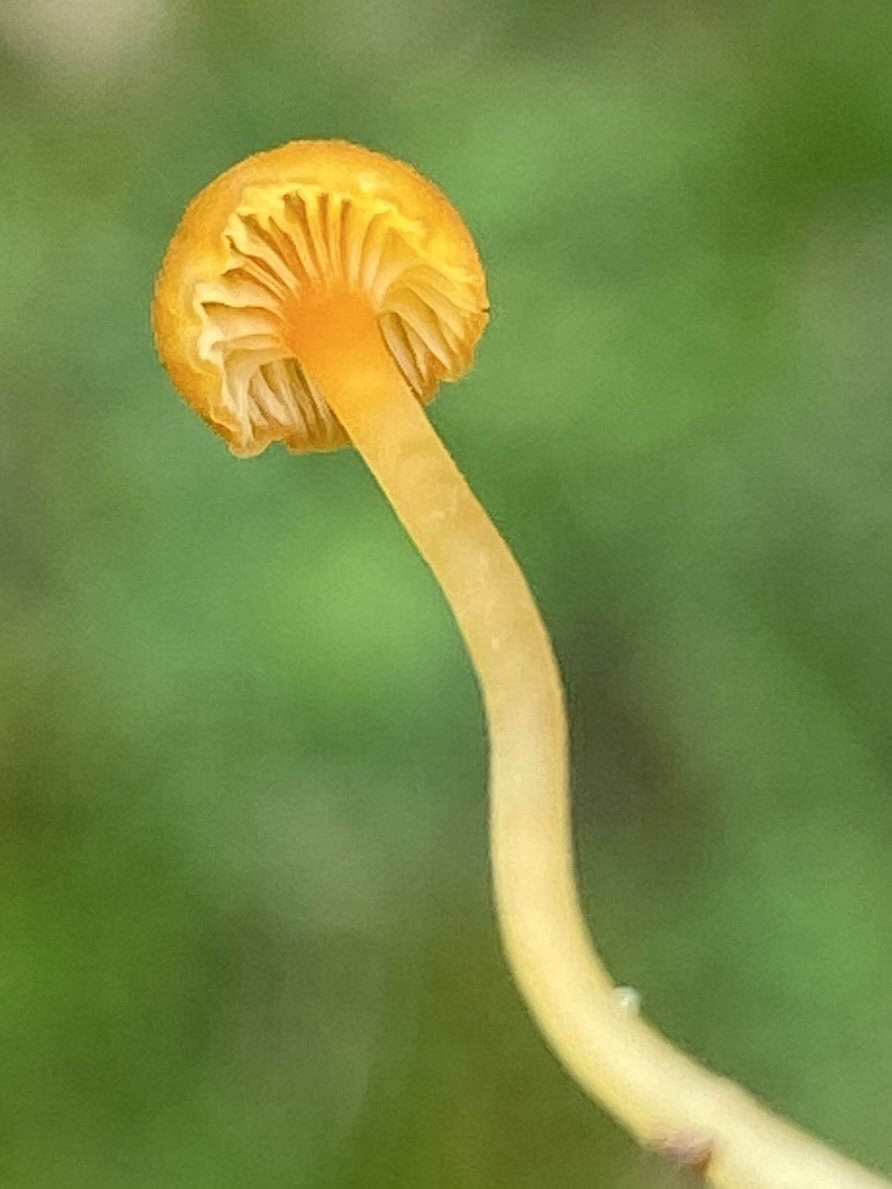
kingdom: Fungi
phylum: Basidiomycota
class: Agaricomycetes
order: Hymenochaetales
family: Rickenellaceae
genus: Rickenella
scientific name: Rickenella fibula
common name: orange mosnavlehat
